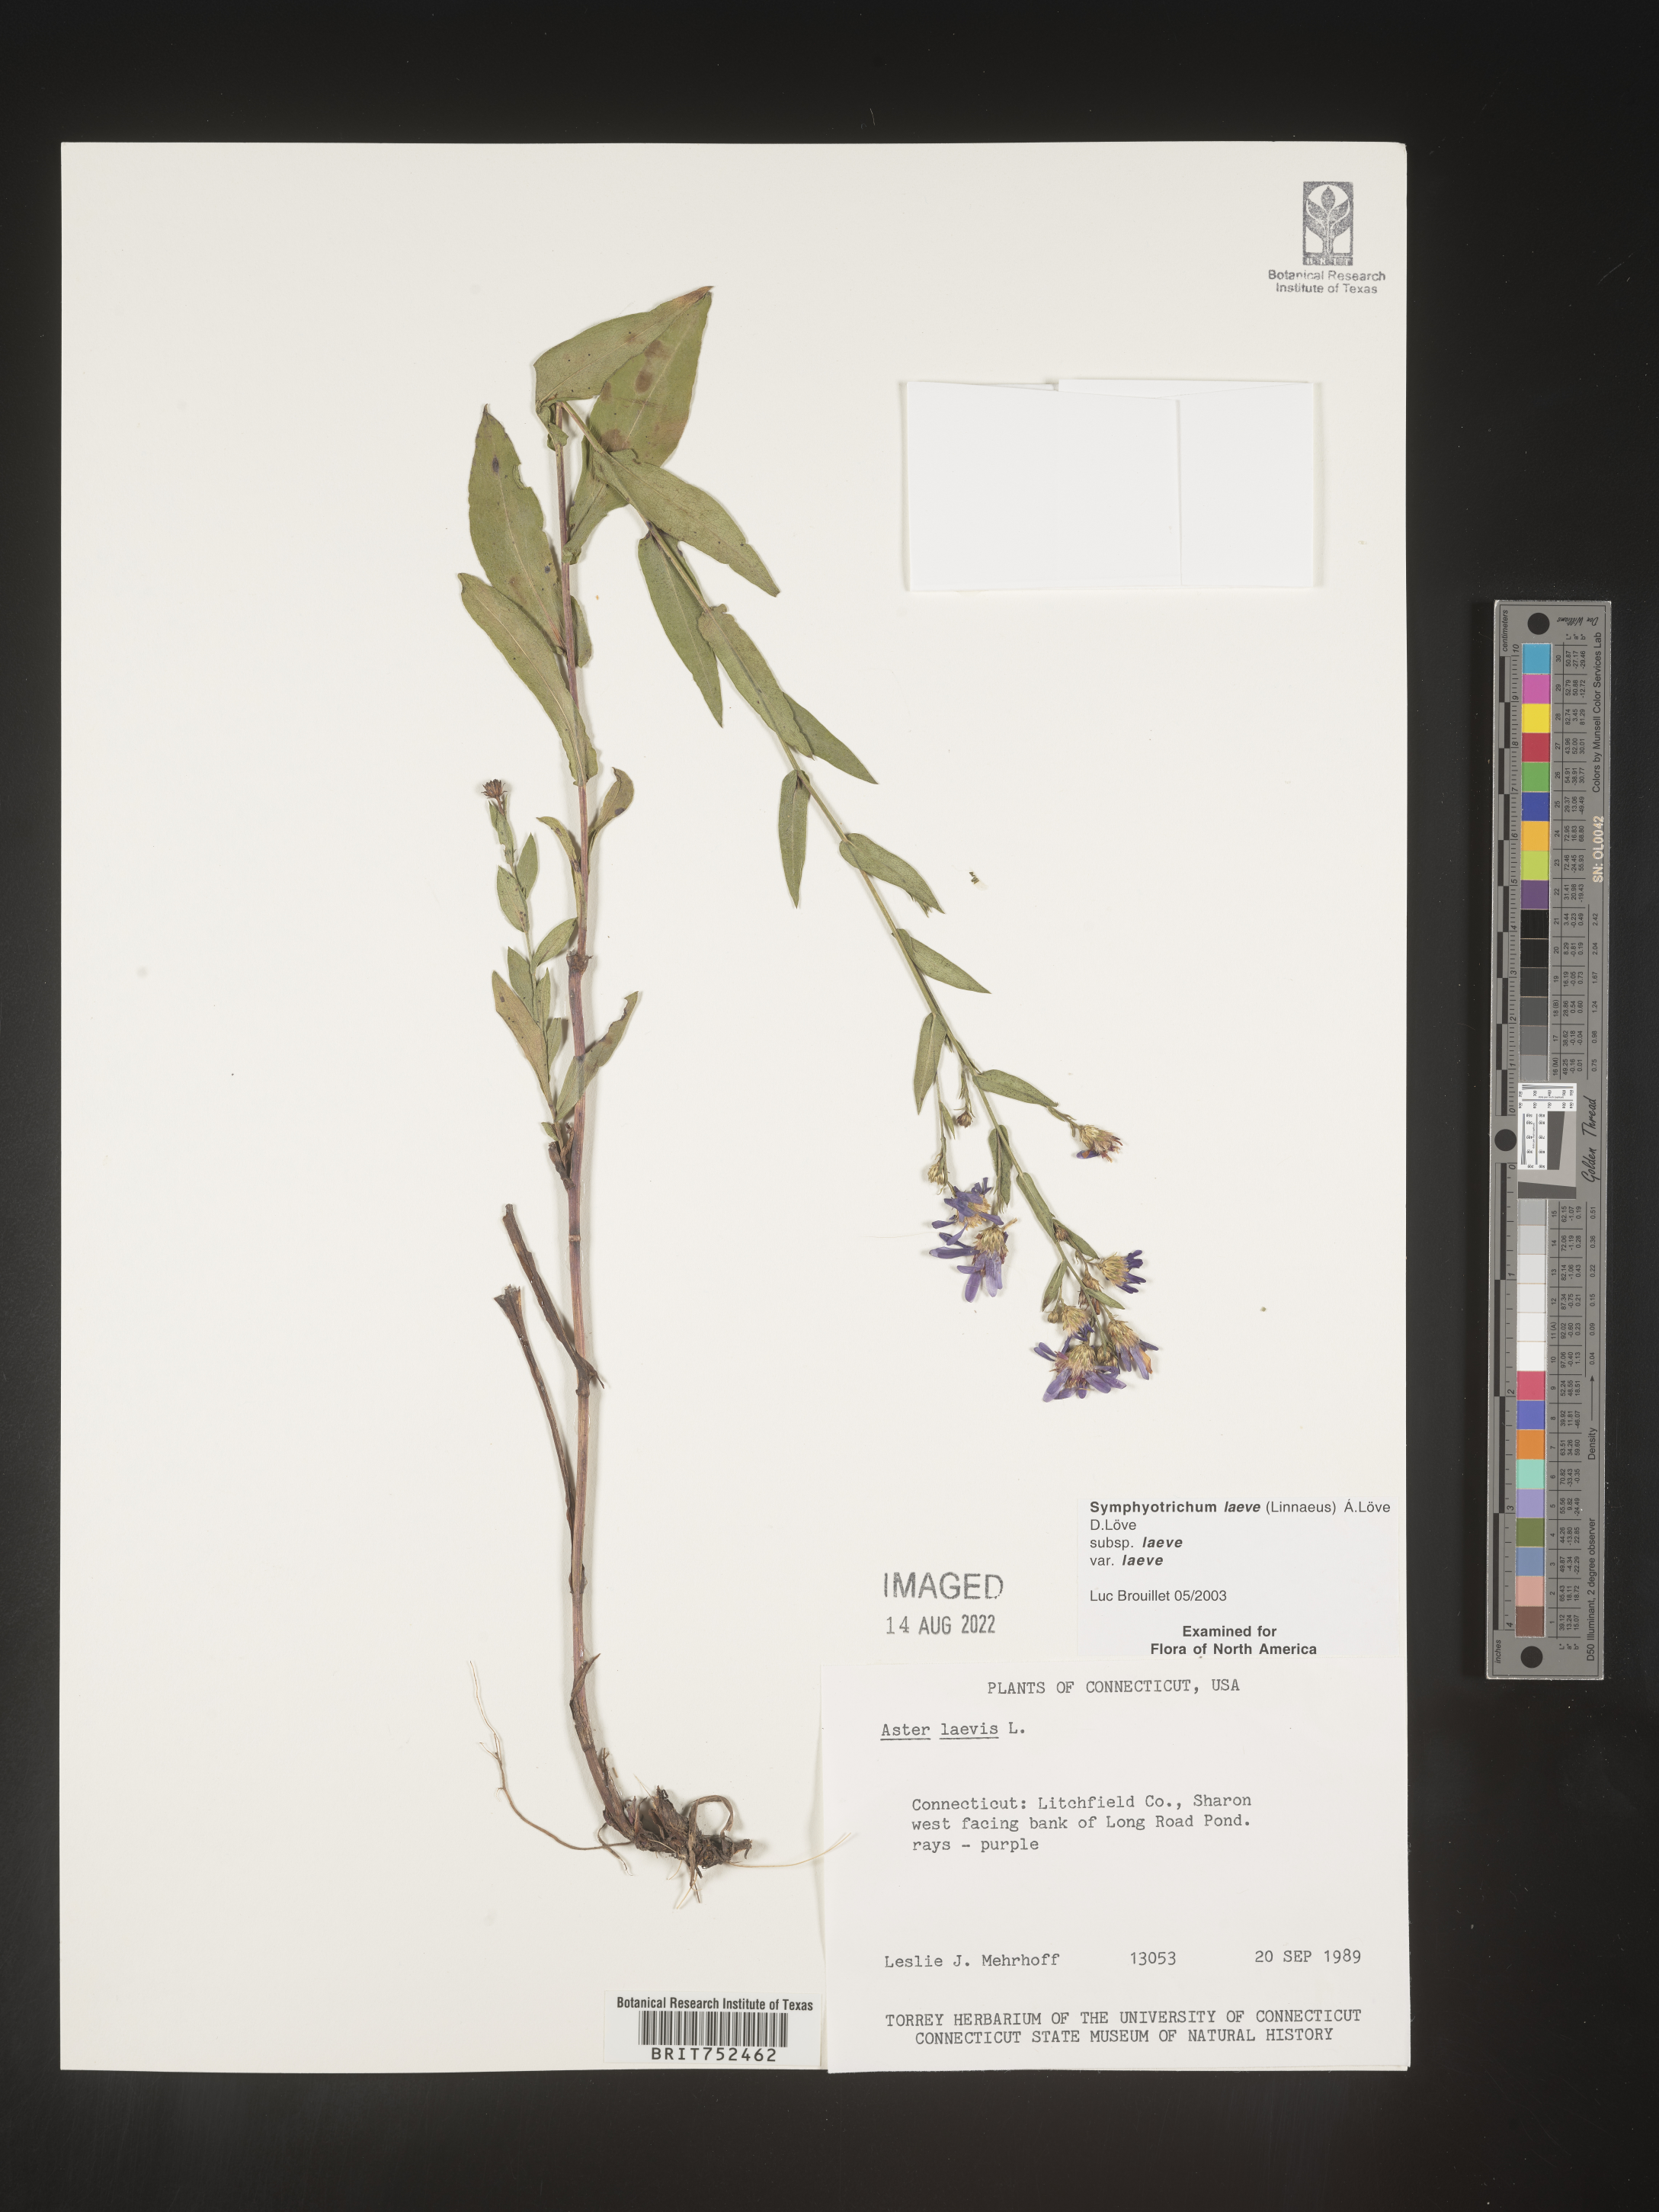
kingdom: Plantae
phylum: Tracheophyta
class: Magnoliopsida
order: Asterales
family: Asteraceae
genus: Symphyotrichum
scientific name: Symphyotrichum laeve
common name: Glaucous aster
